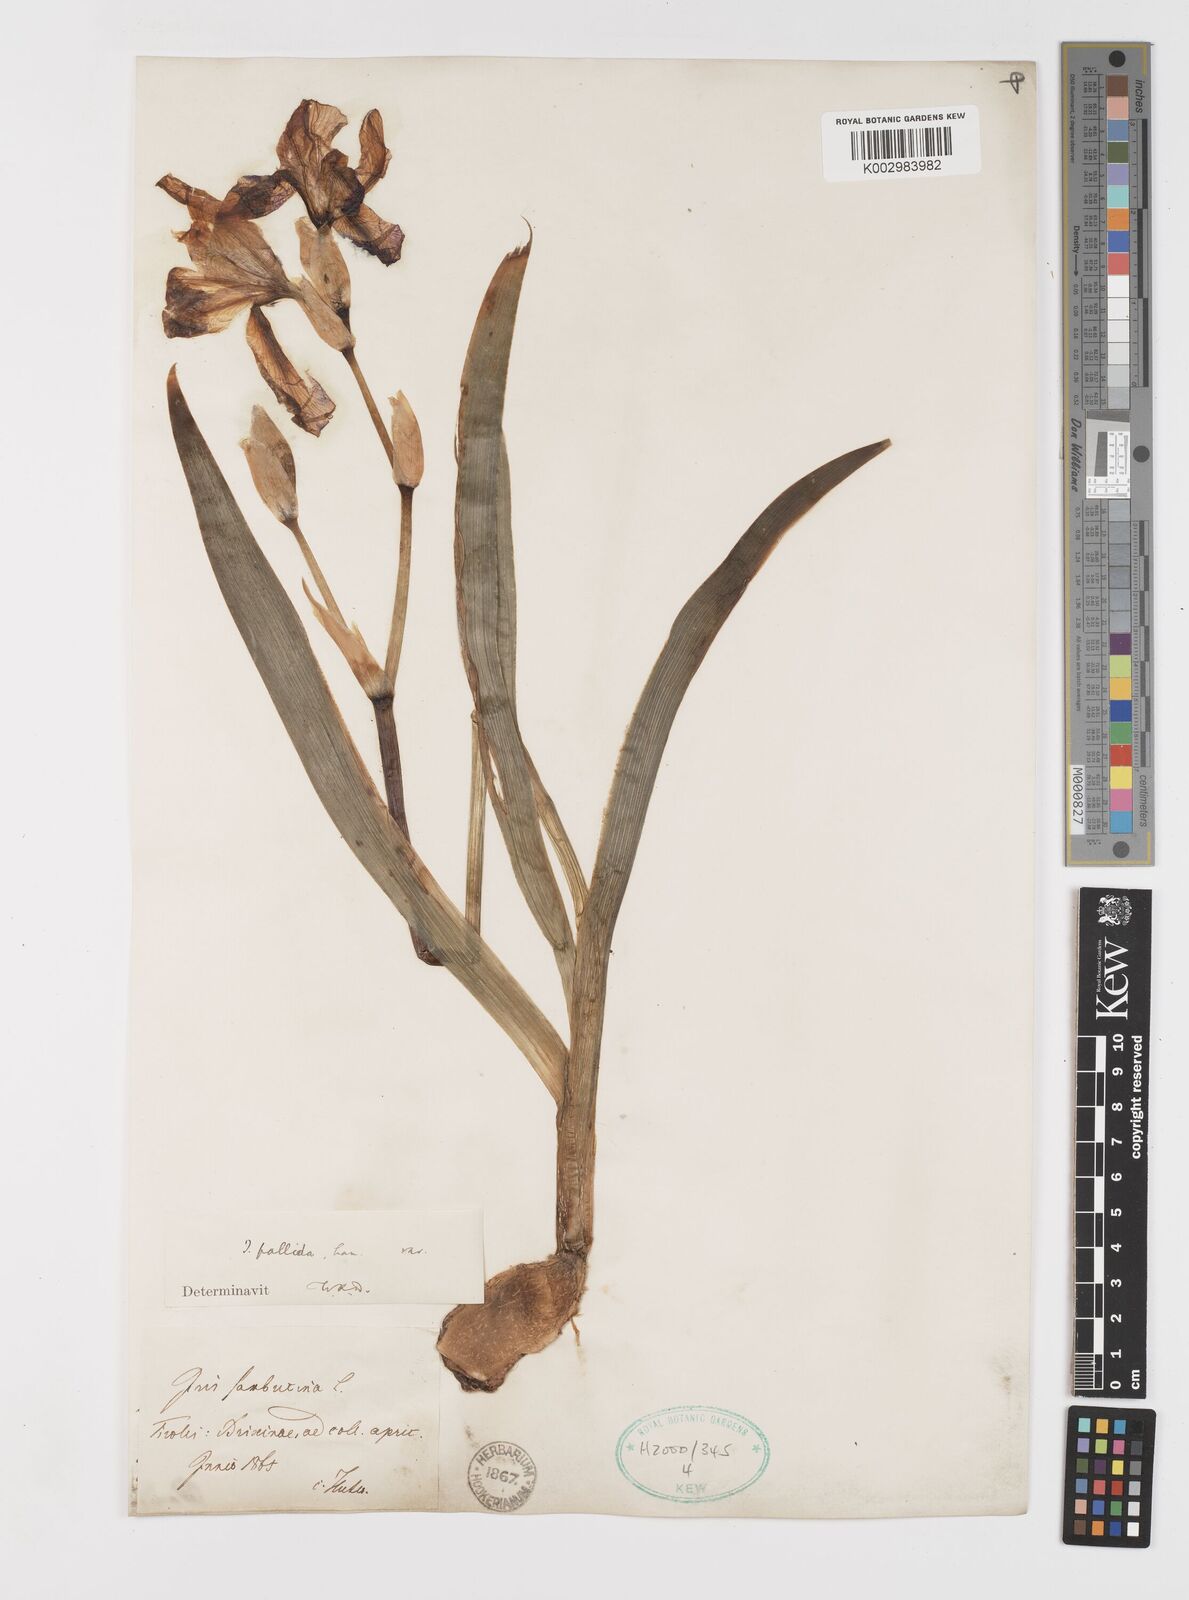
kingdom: Plantae
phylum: Tracheophyta
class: Liliopsida
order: Asparagales
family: Iridaceae
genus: Iris
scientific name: Iris halophila
